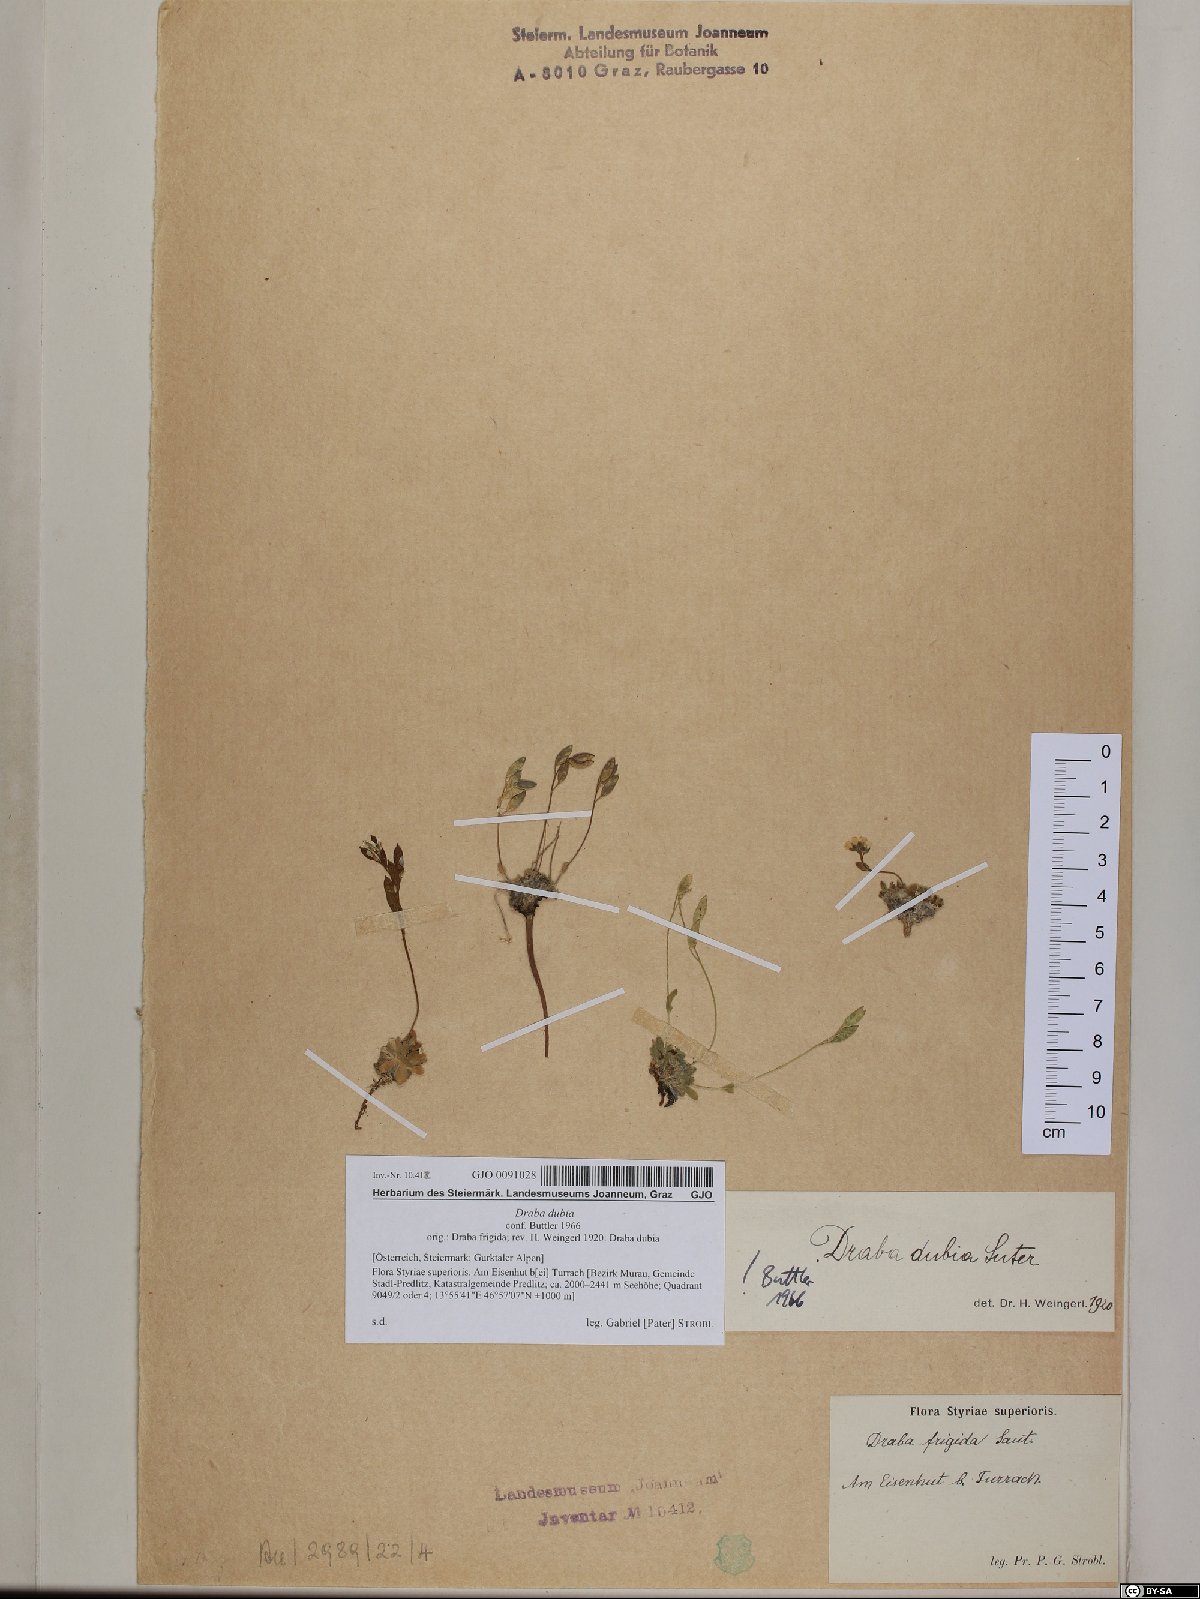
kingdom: Plantae
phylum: Tracheophyta
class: Magnoliopsida
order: Brassicales
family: Brassicaceae
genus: Draba
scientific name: Draba dubia
